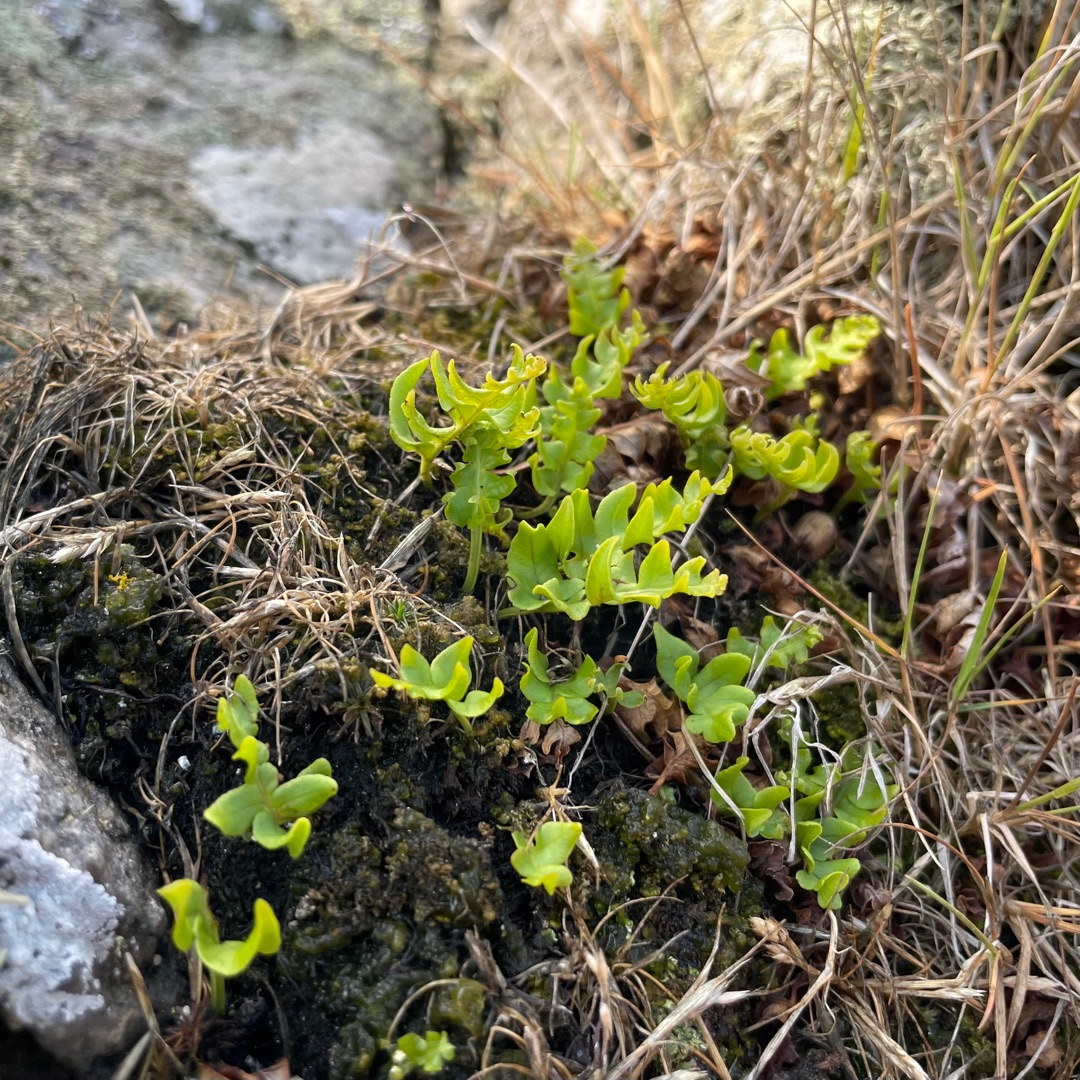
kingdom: Plantae
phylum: Tracheophyta
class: Polypodiopsida
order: Polypodiales
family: Polypodiaceae
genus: Polypodium
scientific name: Polypodium
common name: Engelsødslægten
